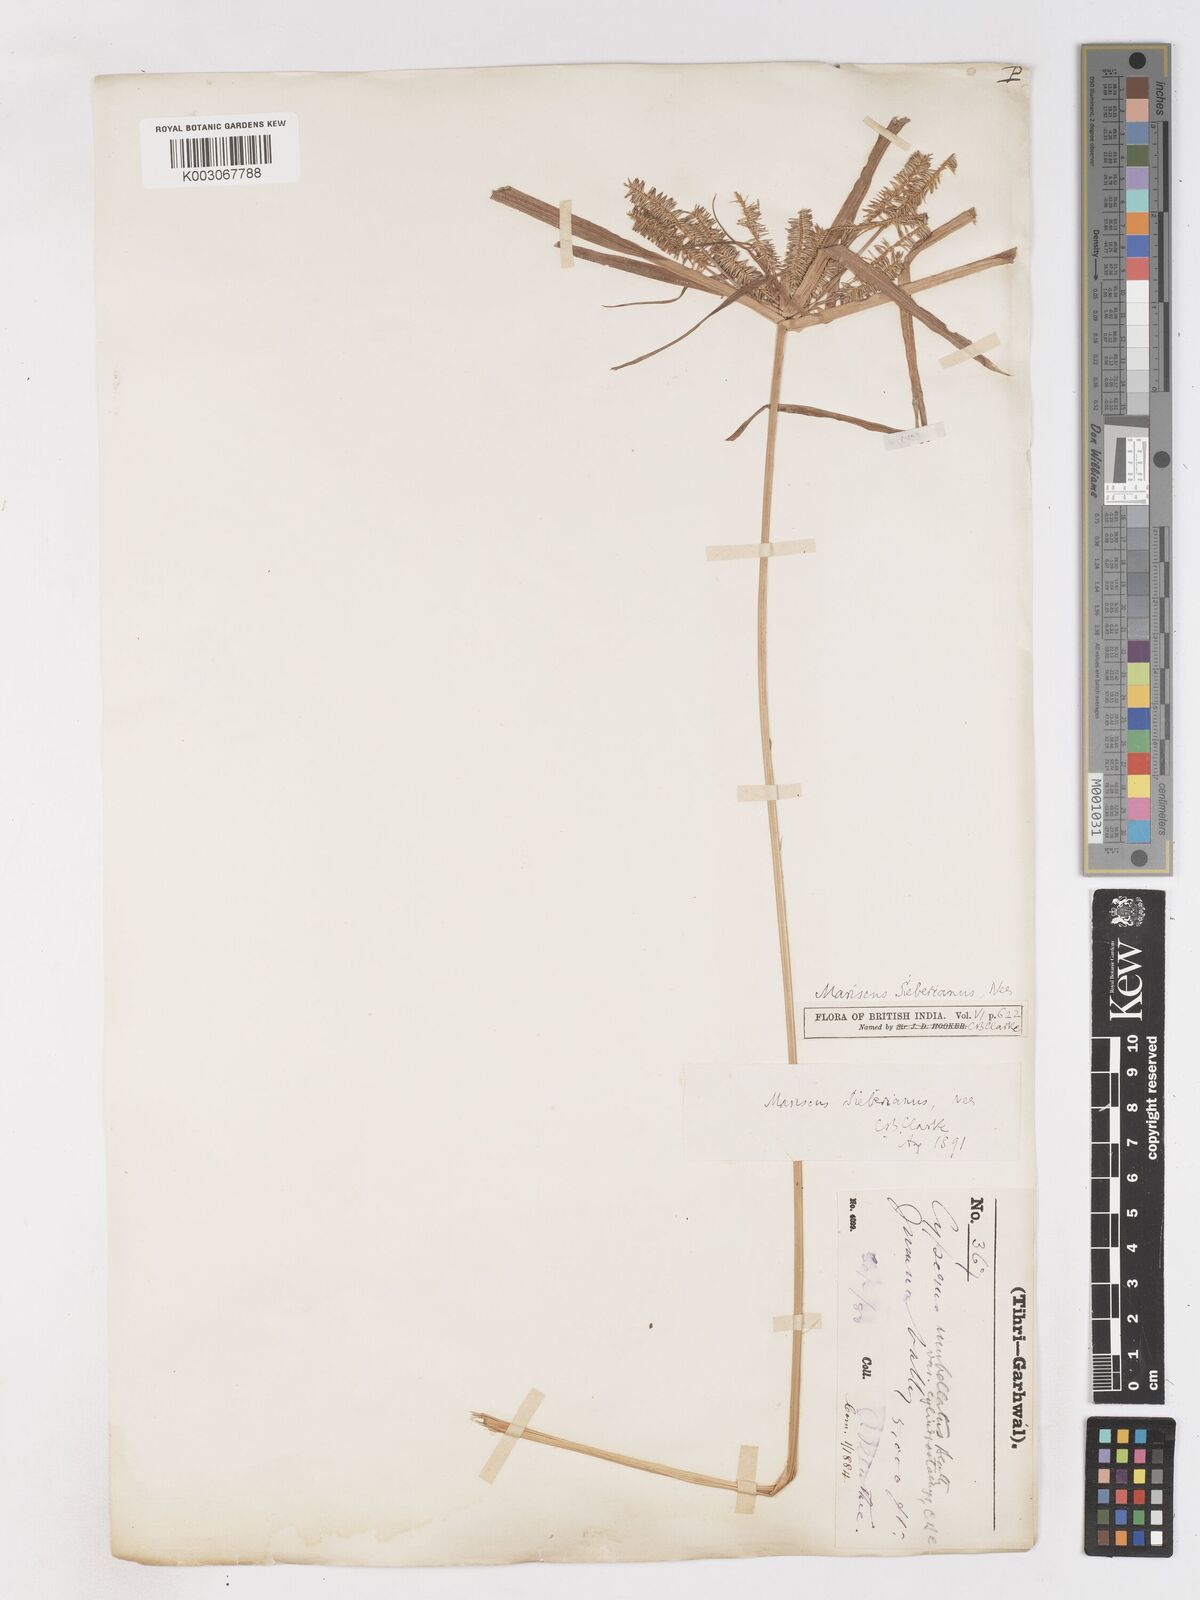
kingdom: Plantae
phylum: Tracheophyta
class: Liliopsida
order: Poales
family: Cyperaceae
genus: Cyperus
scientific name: Cyperus cyperoides
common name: Pacific island flat sedge
